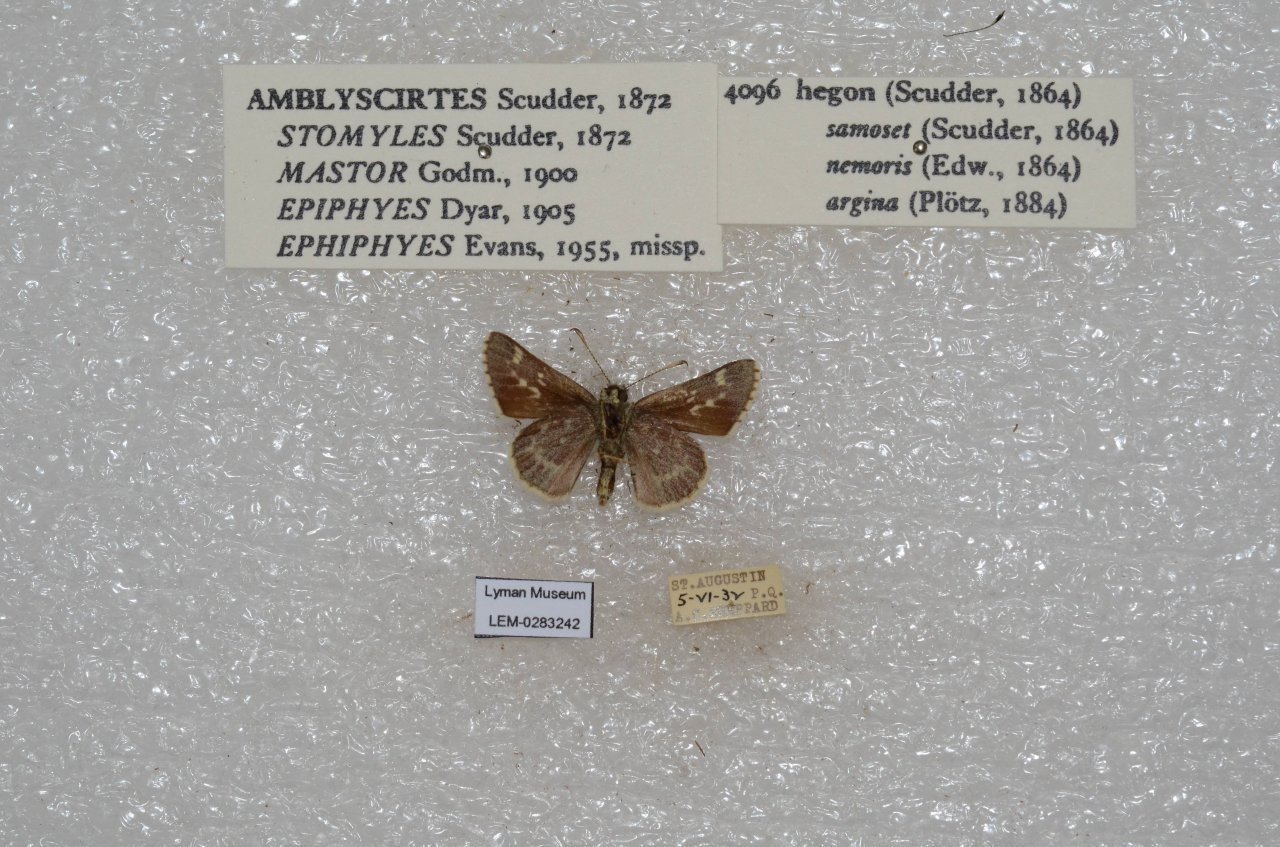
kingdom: Animalia
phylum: Arthropoda
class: Insecta
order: Lepidoptera
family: Hesperiidae
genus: Mastor
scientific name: Mastor hegon
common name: Pepper and Salt Skipper
